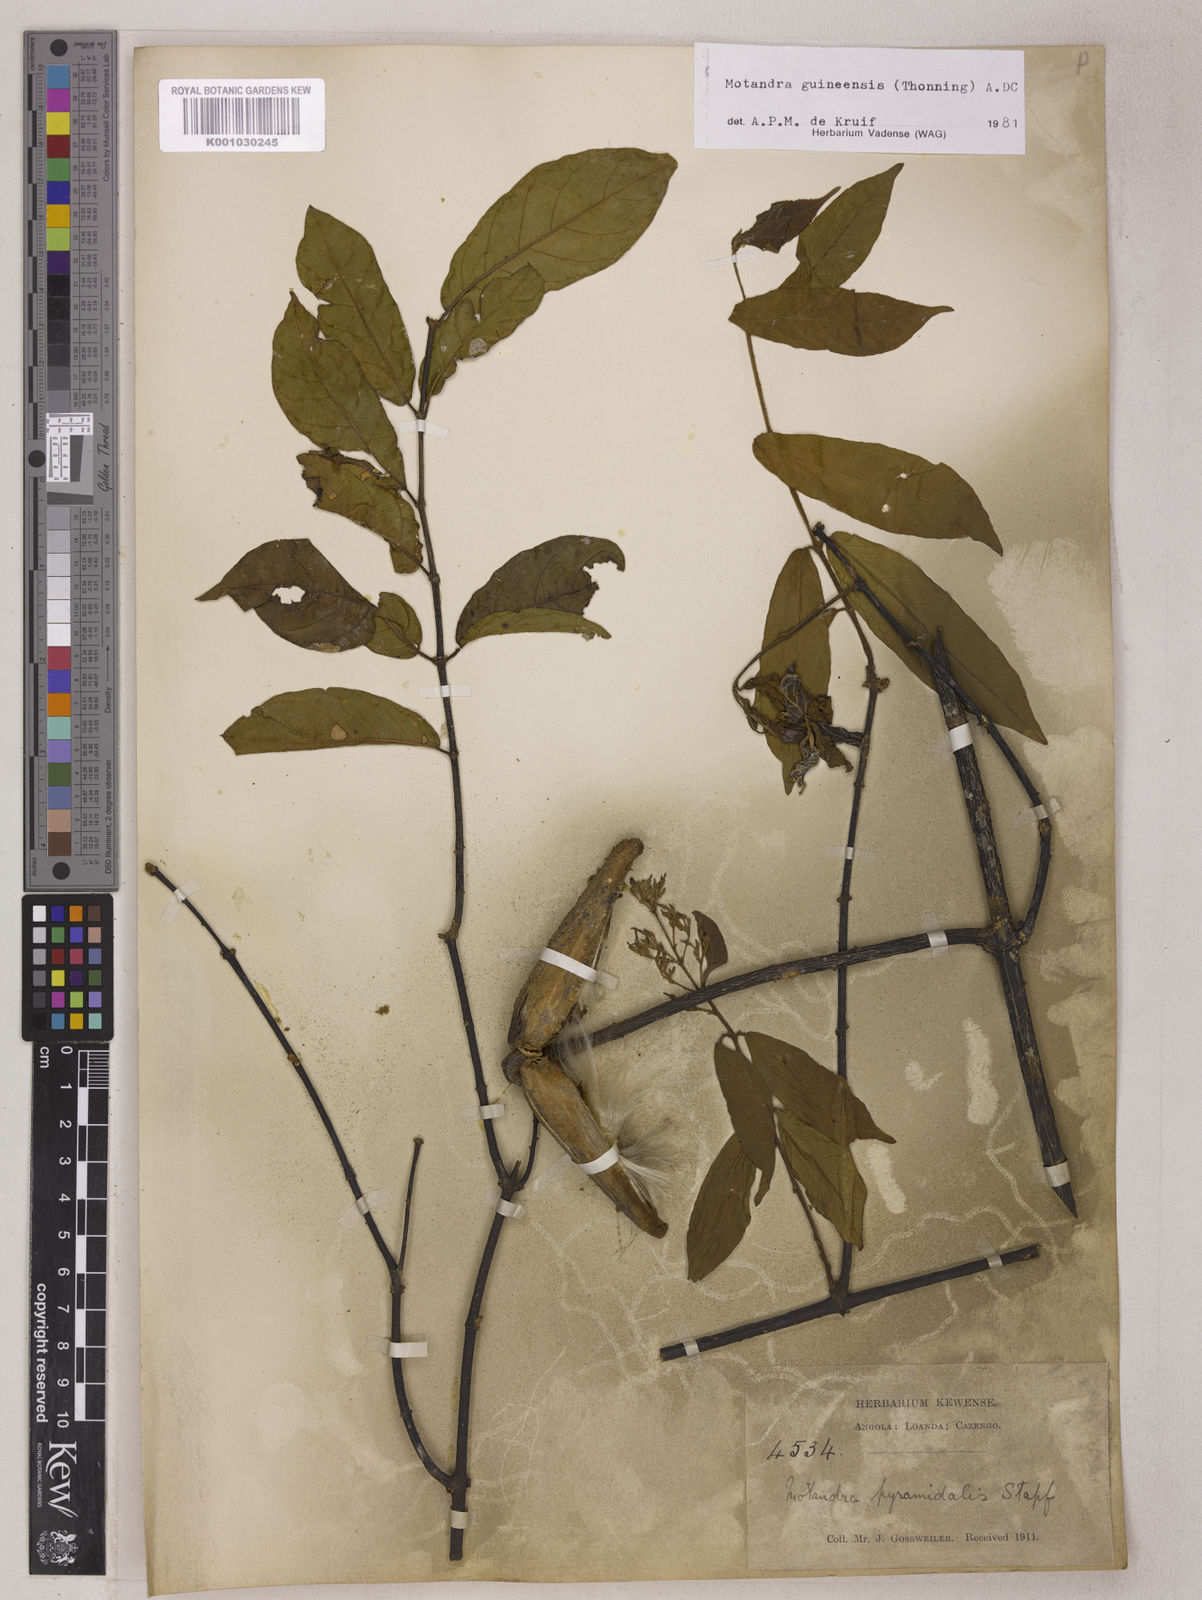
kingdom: Plantae
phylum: Tracheophyta
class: Magnoliopsida
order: Gentianales
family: Apocynaceae
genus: Motandra
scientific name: Motandra paniculata
